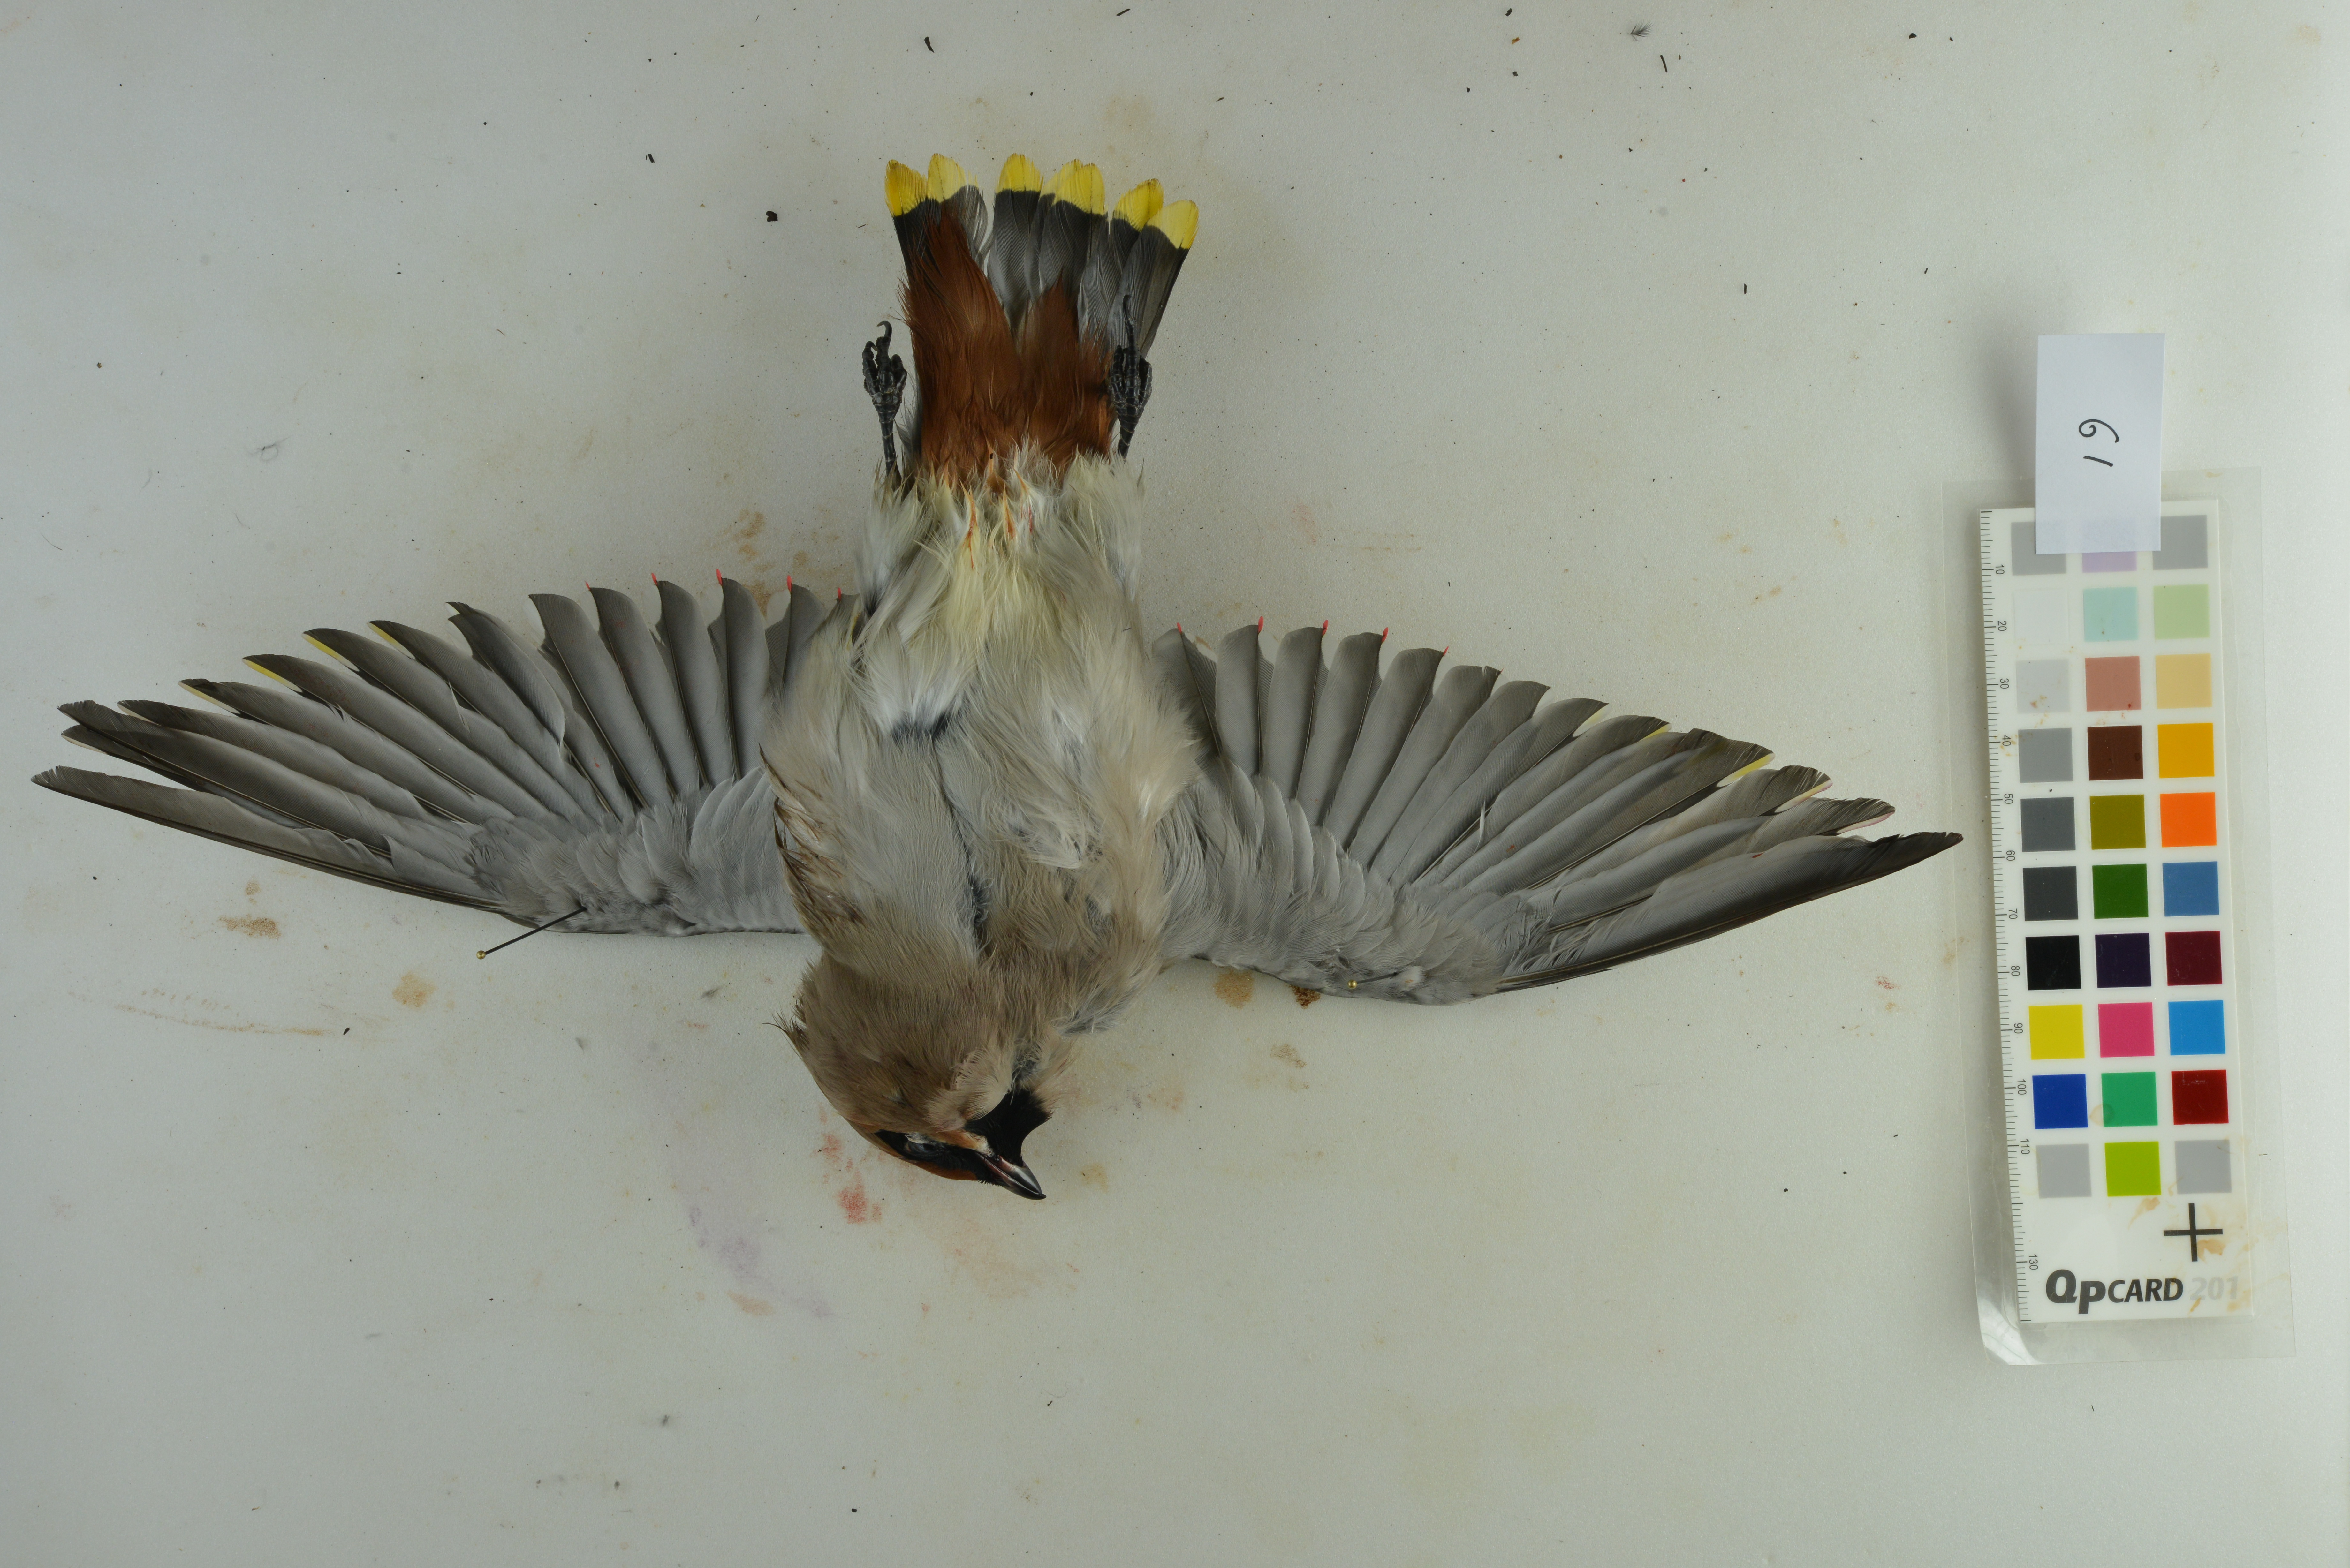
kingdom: Animalia
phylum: Chordata
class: Aves
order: Passeriformes
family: Bombycillidae
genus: Bombycilla
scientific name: Bombycilla garrulus
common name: Bohemian waxwing
